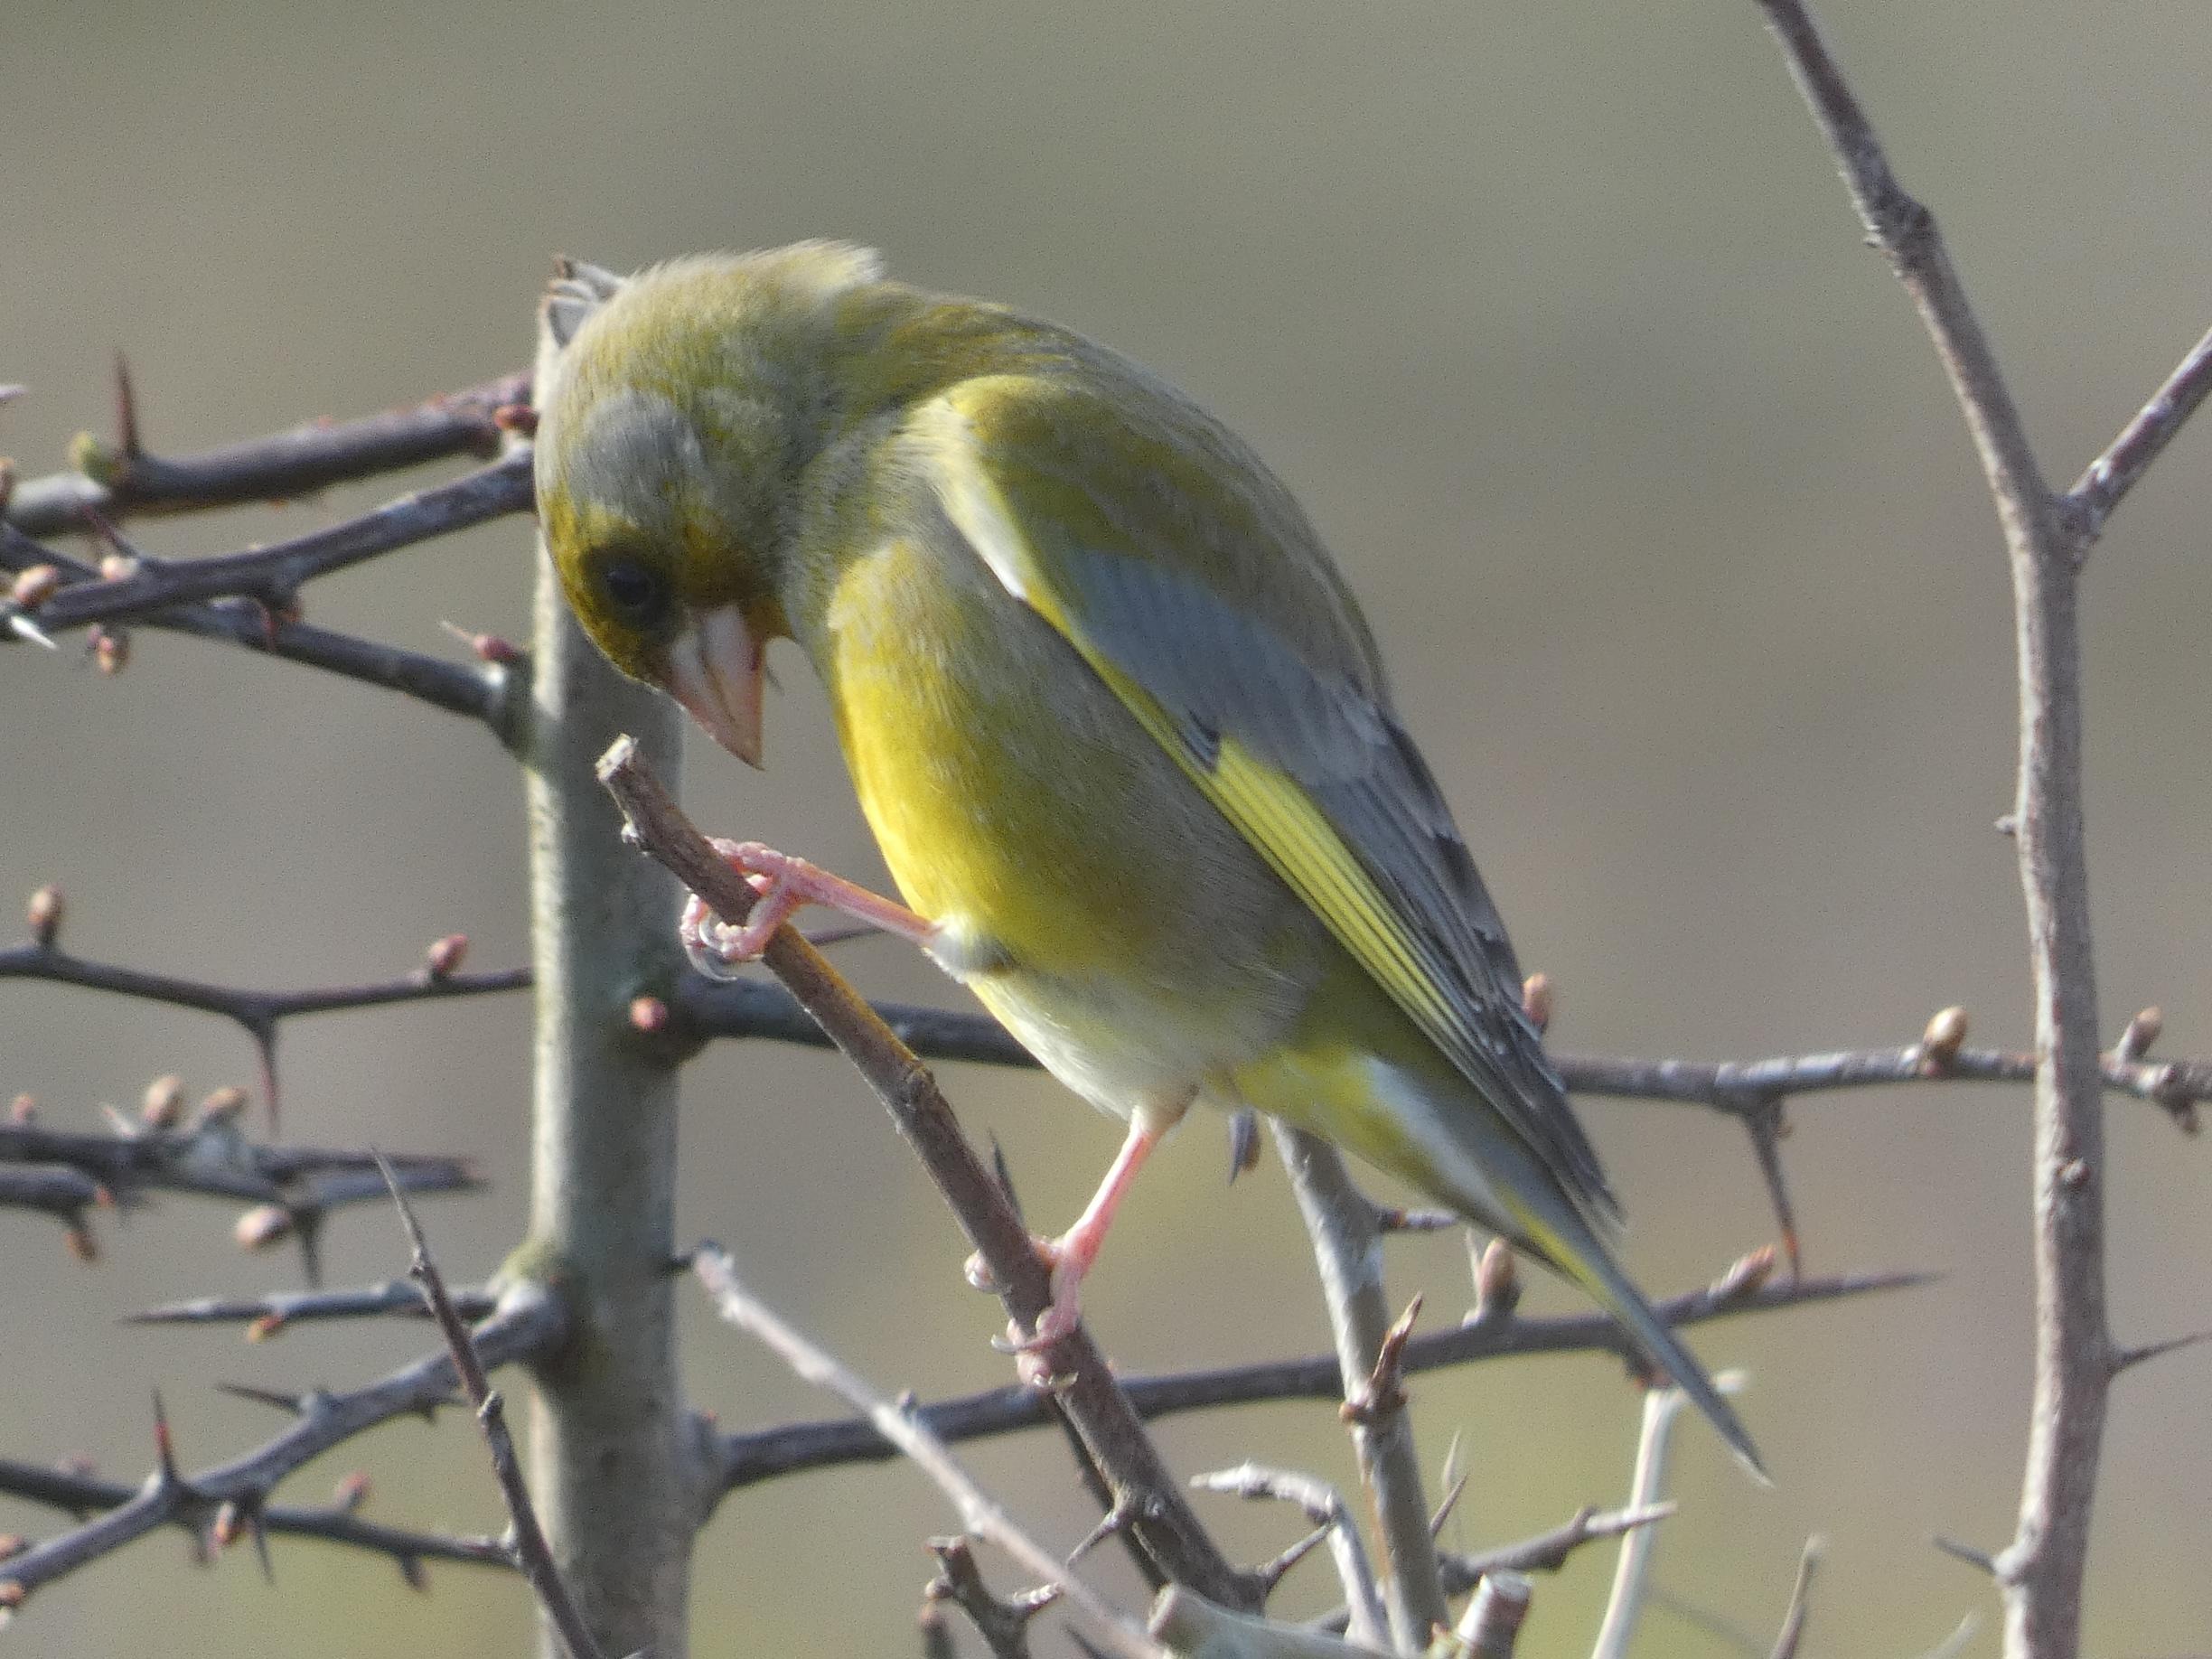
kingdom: Plantae
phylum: Tracheophyta
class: Liliopsida
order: Poales
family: Poaceae
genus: Chloris
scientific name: Chloris chloris
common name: Grønirisk
